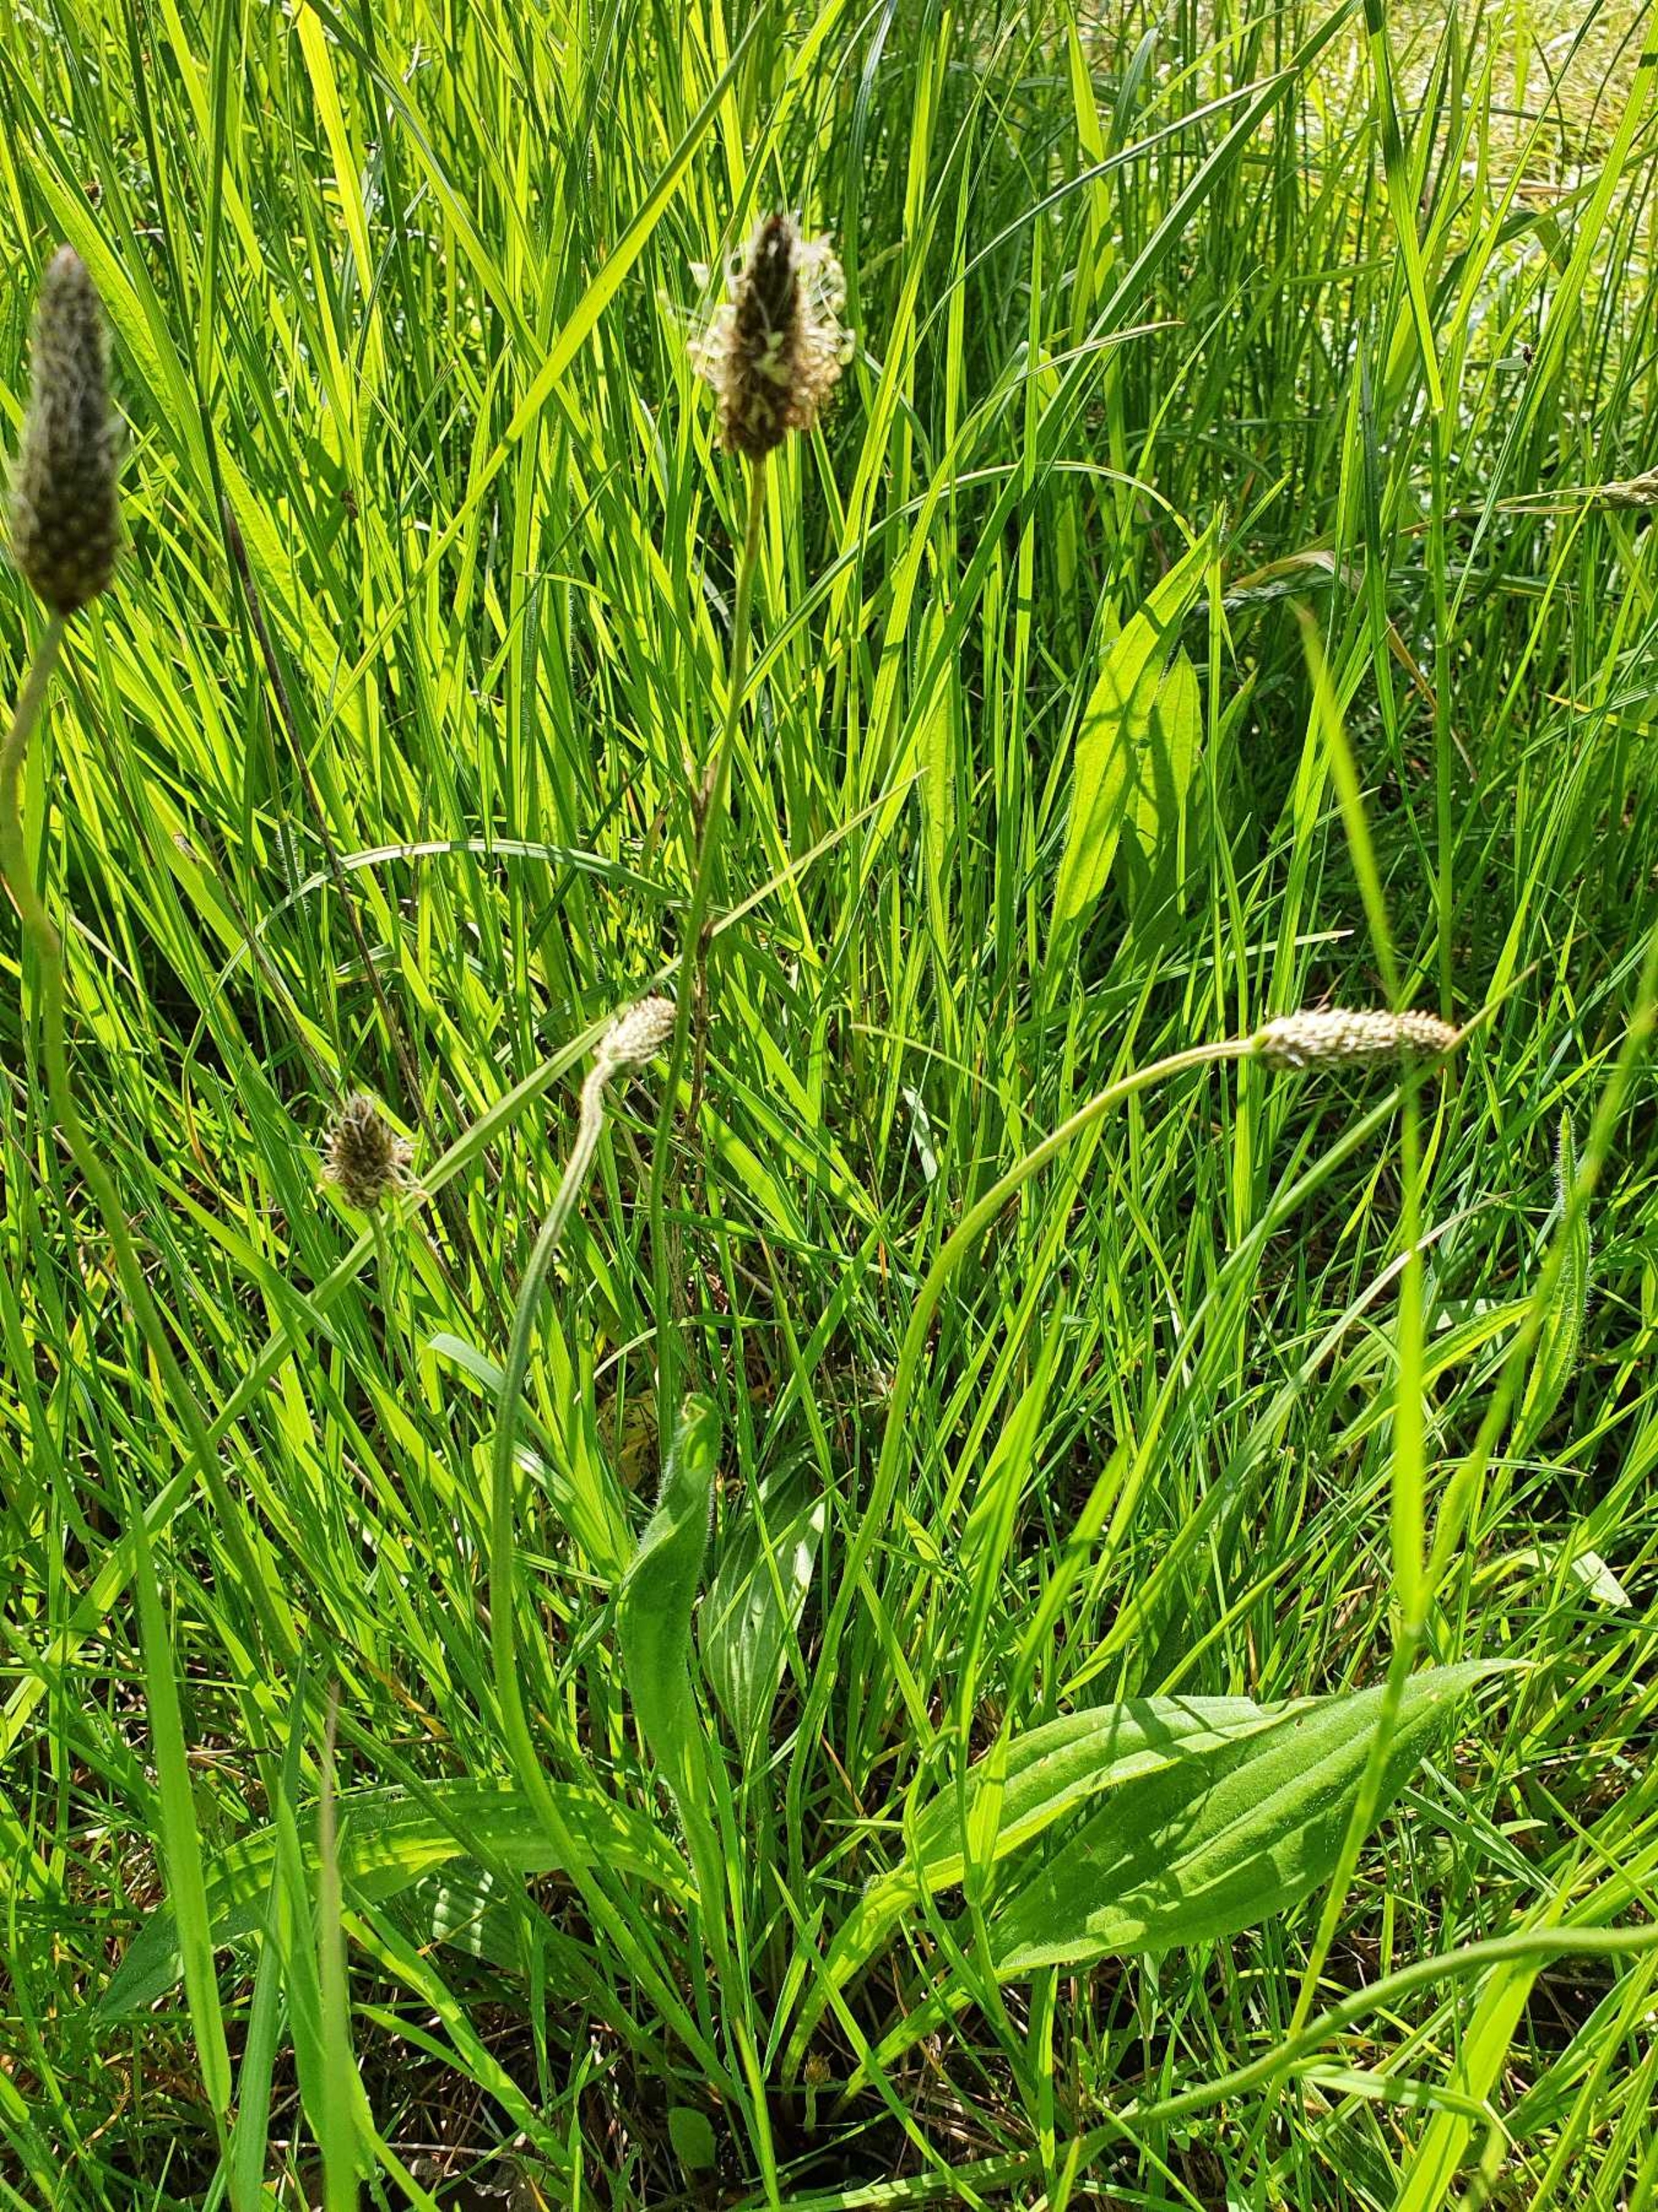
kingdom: Plantae
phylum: Tracheophyta
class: Magnoliopsida
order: Lamiales
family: Plantaginaceae
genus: Plantago
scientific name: Plantago lanceolata
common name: Lancet-vejbred
